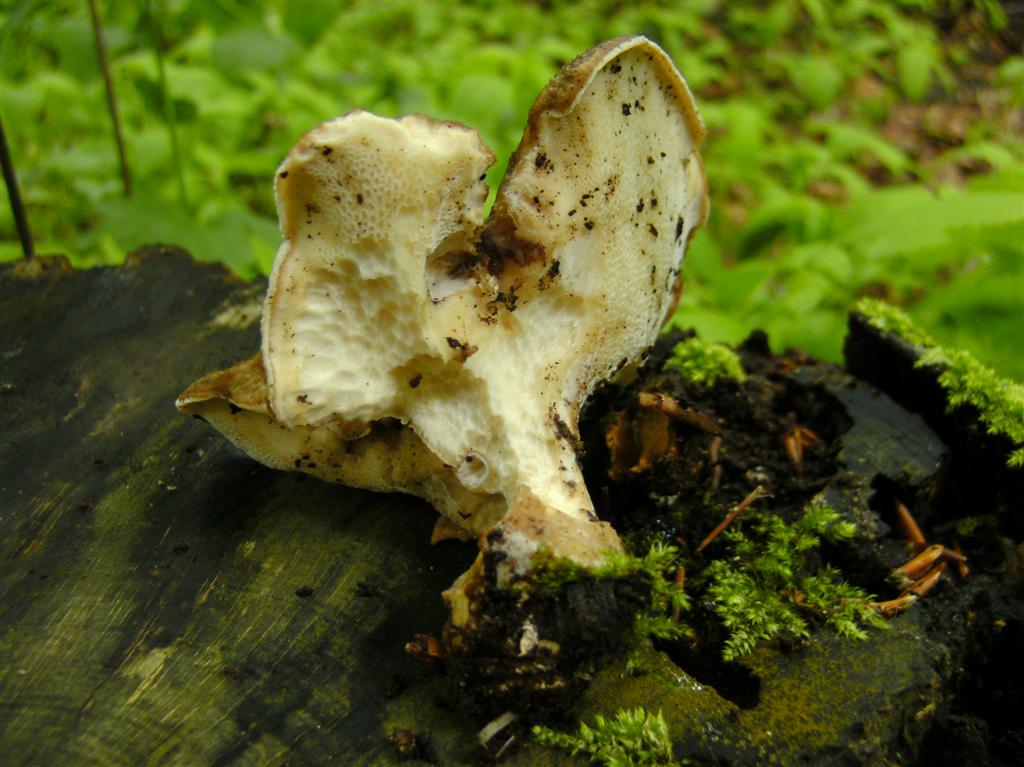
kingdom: Fungi
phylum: Basidiomycota
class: Agaricomycetes
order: Polyporales
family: Polyporaceae
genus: Polyporus
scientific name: Polyporus tuberaster
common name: knoldet stilkporesvamp
